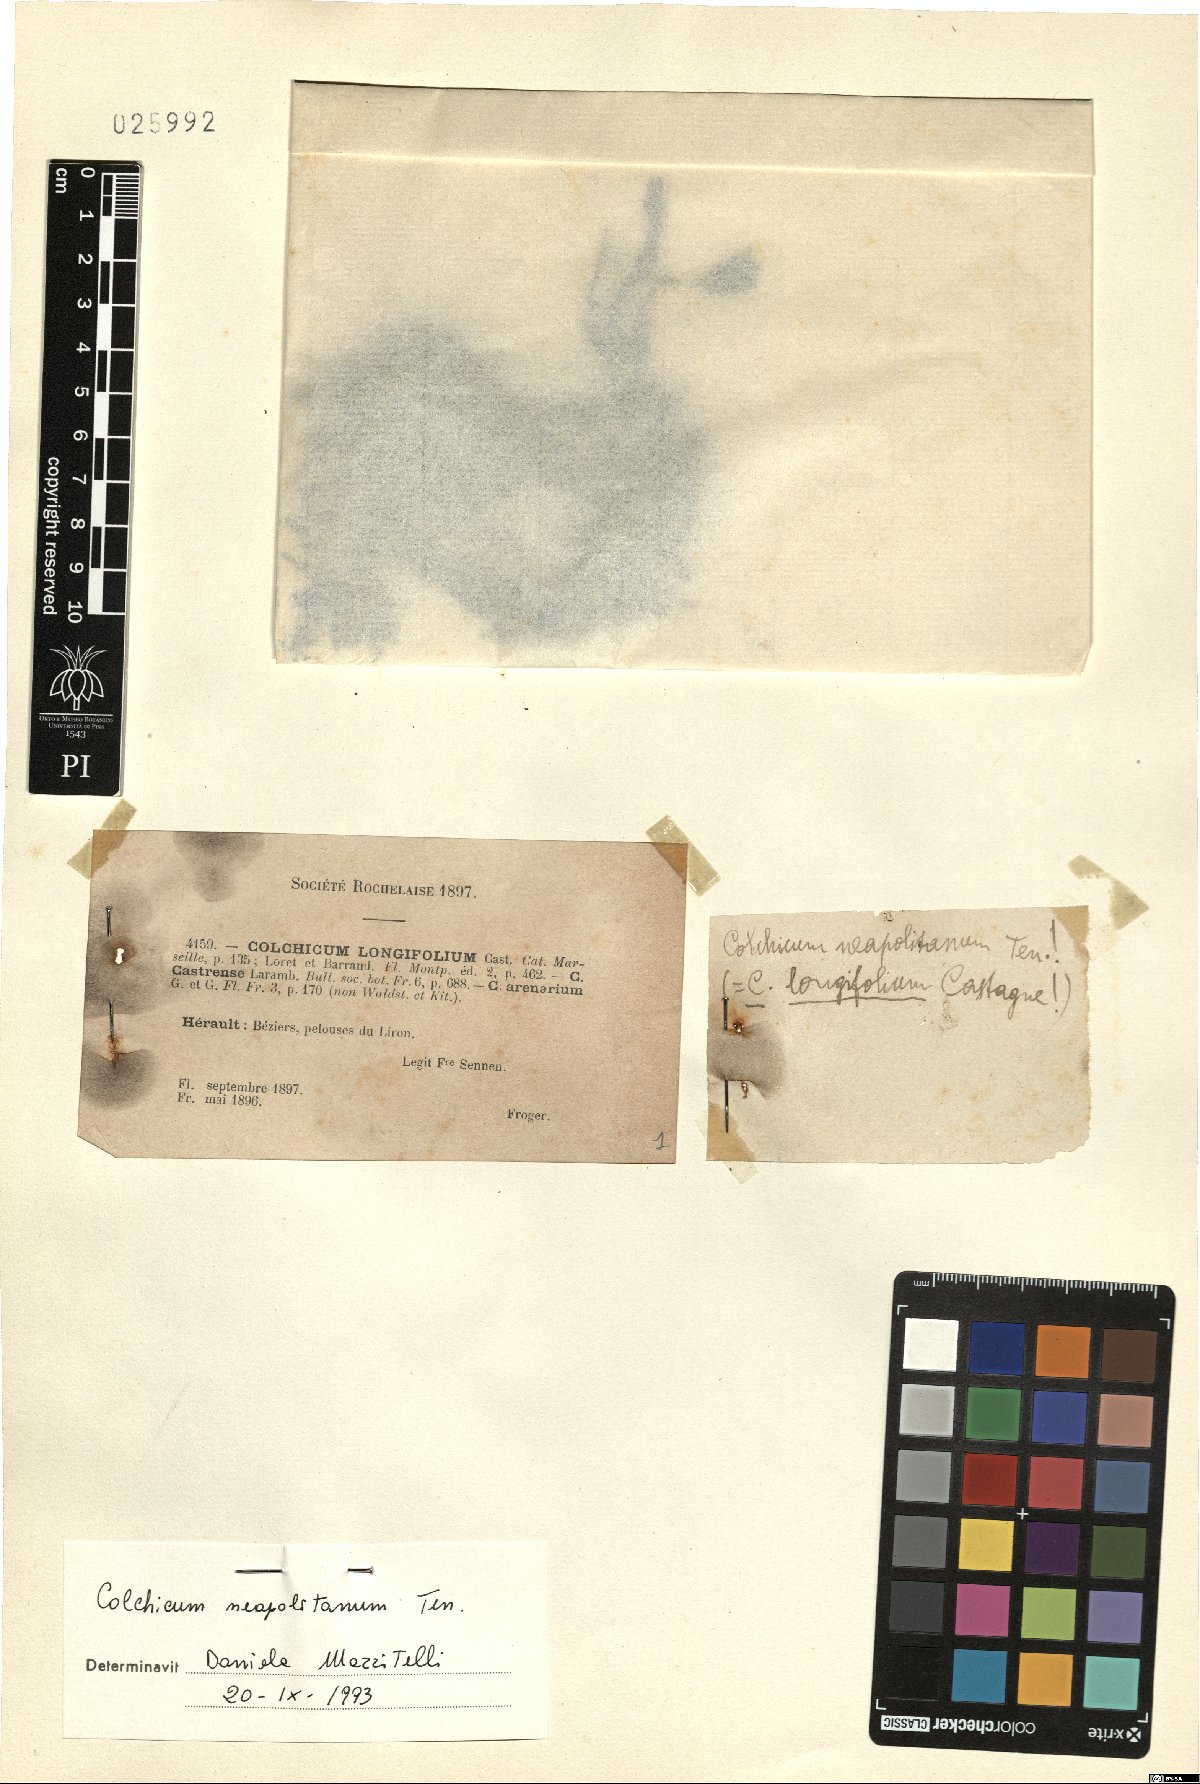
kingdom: Plantae
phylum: Tracheophyta
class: Liliopsida
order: Liliales
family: Colchicaceae
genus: Colchicum
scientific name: Colchicum neapolitanum
